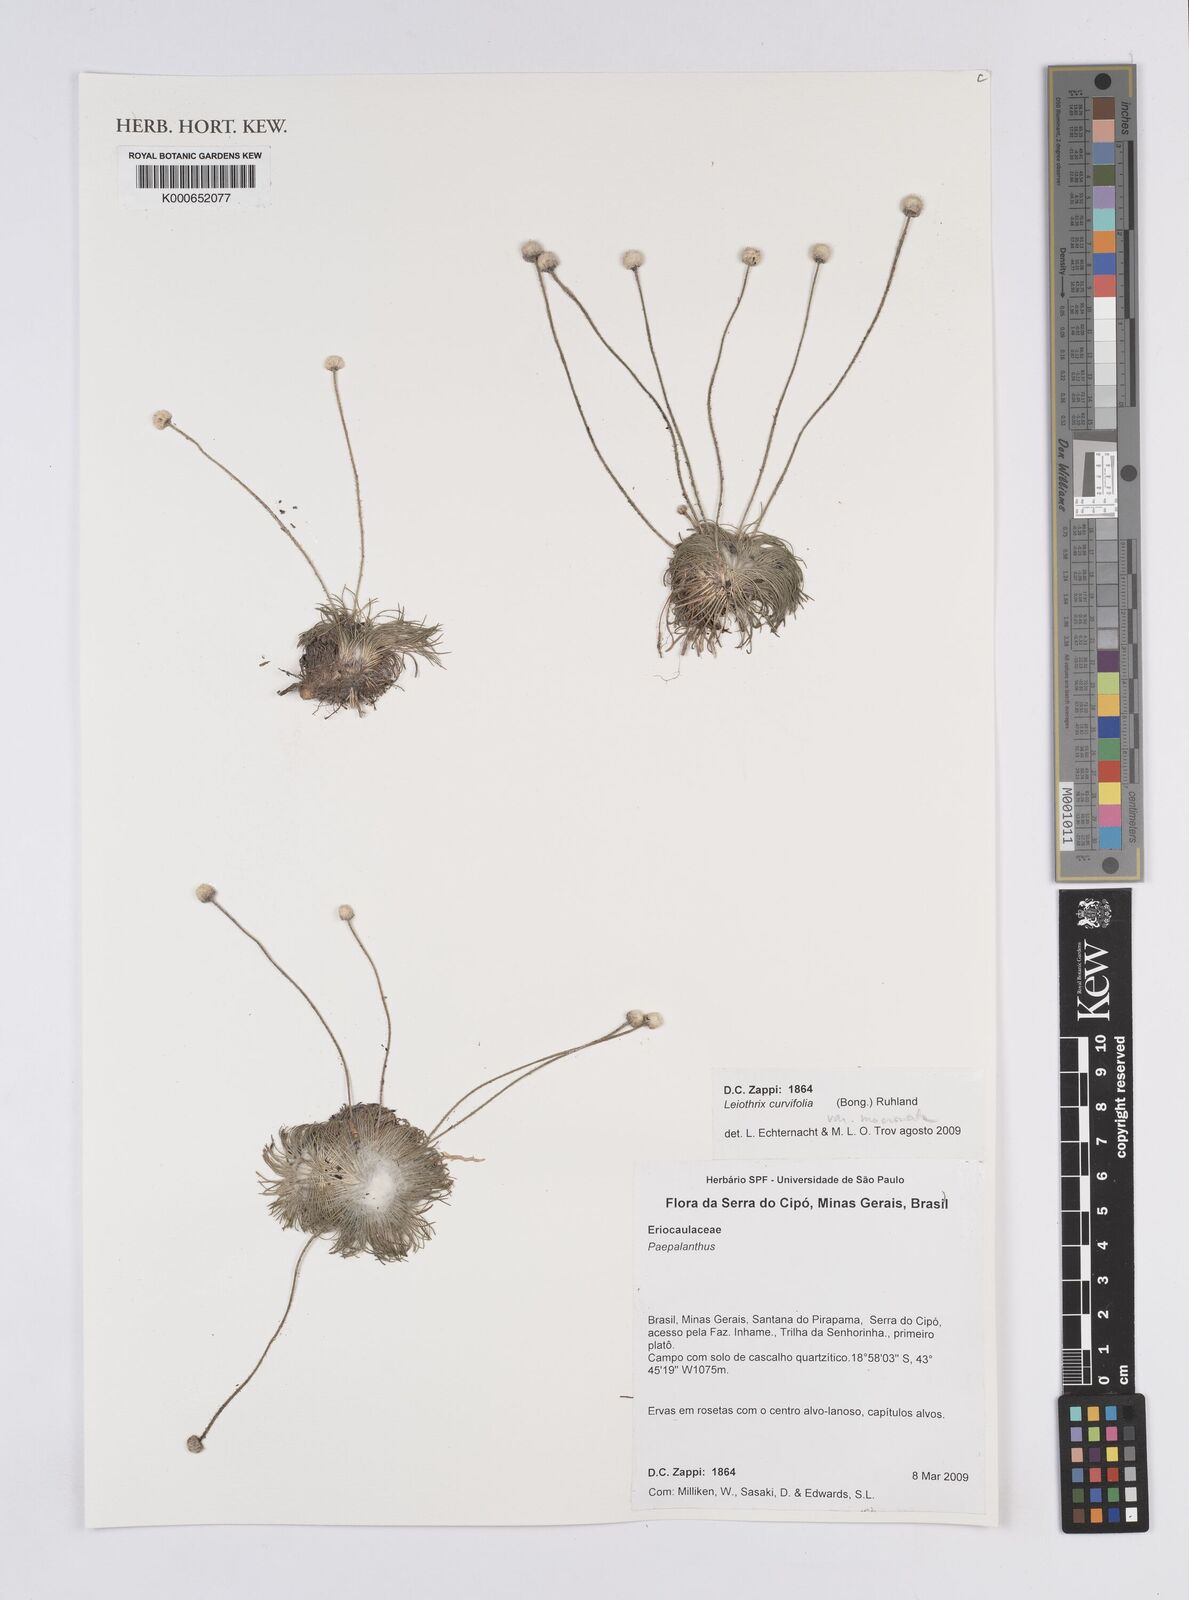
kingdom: Plantae
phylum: Tracheophyta
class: Liliopsida
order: Poales
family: Eriocaulaceae
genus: Leiothrix
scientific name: Leiothrix curvifolia
